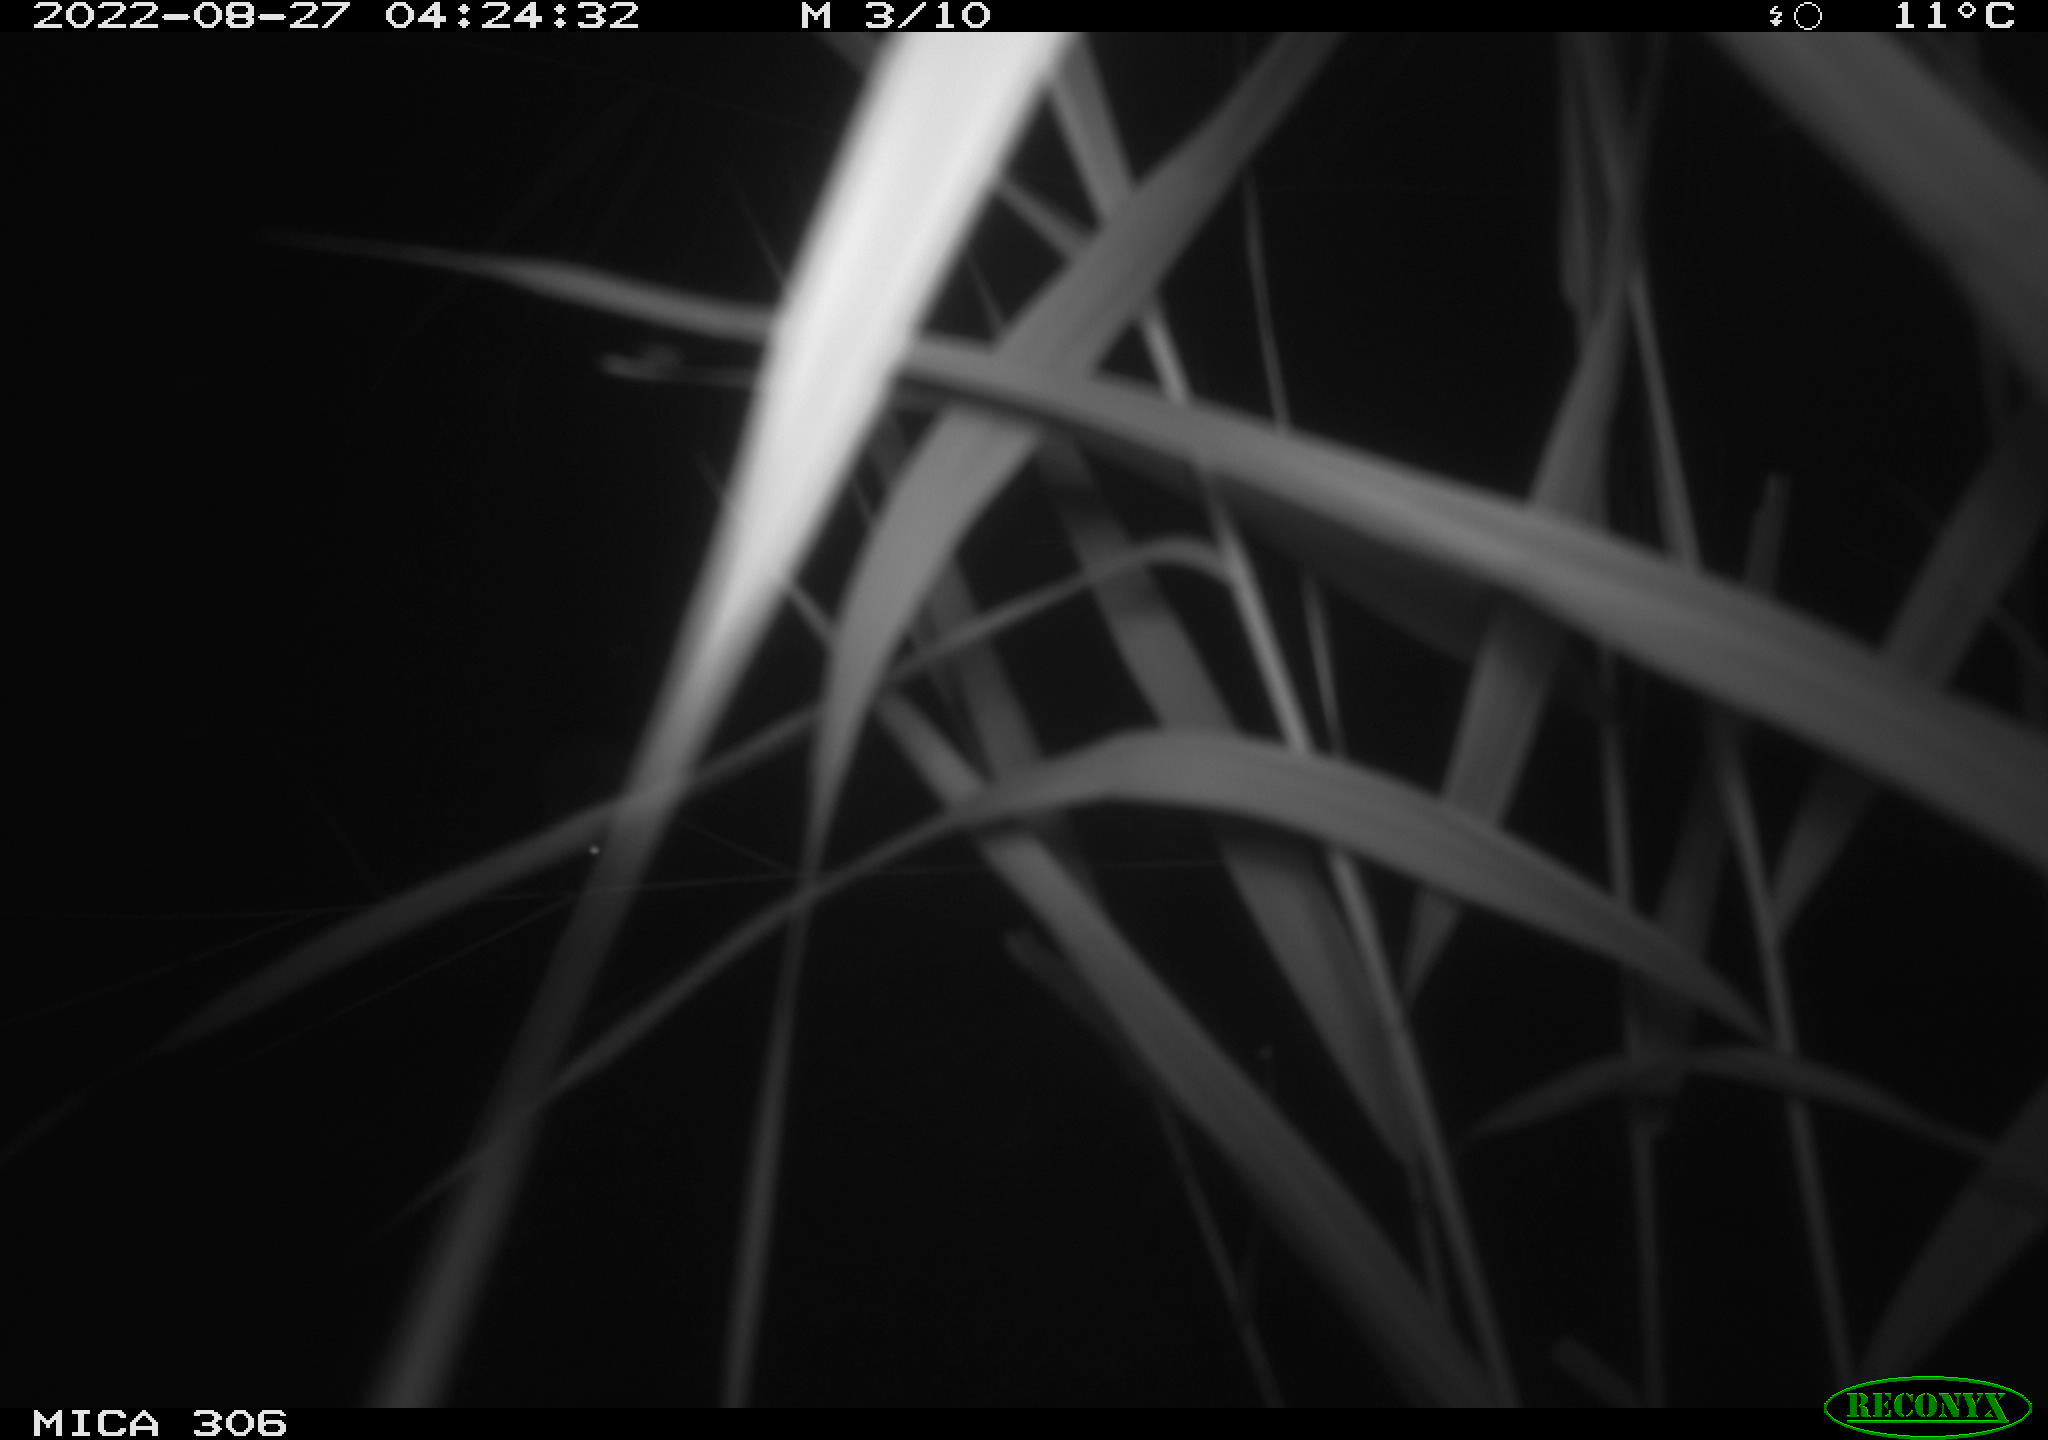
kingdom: Animalia
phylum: Chordata
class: Mammalia
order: Rodentia
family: Muridae
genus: Rattus
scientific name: Rattus norvegicus
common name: Brown rat
